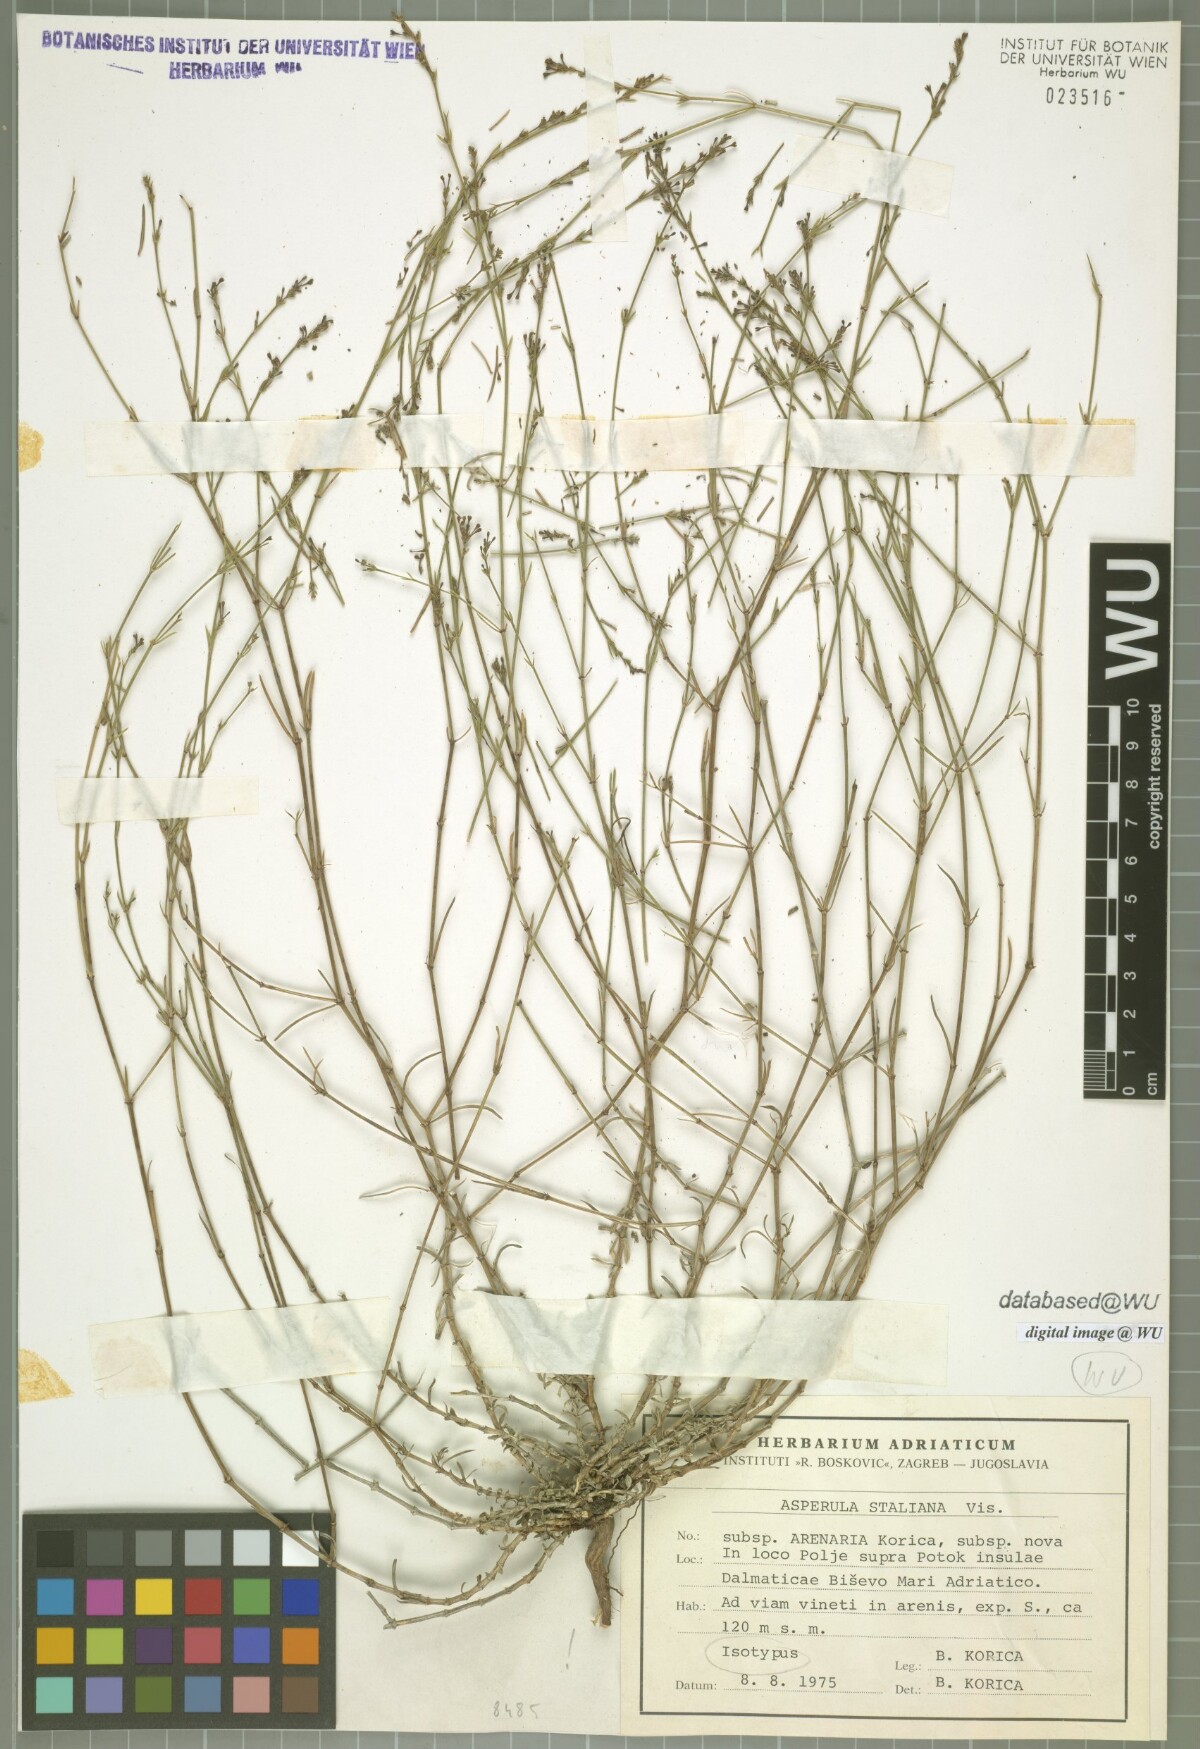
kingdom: Plantae
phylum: Tracheophyta
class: Magnoliopsida
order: Gentianales
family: Rubiaceae
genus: Cynanchica
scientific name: Cynanchica staliana
